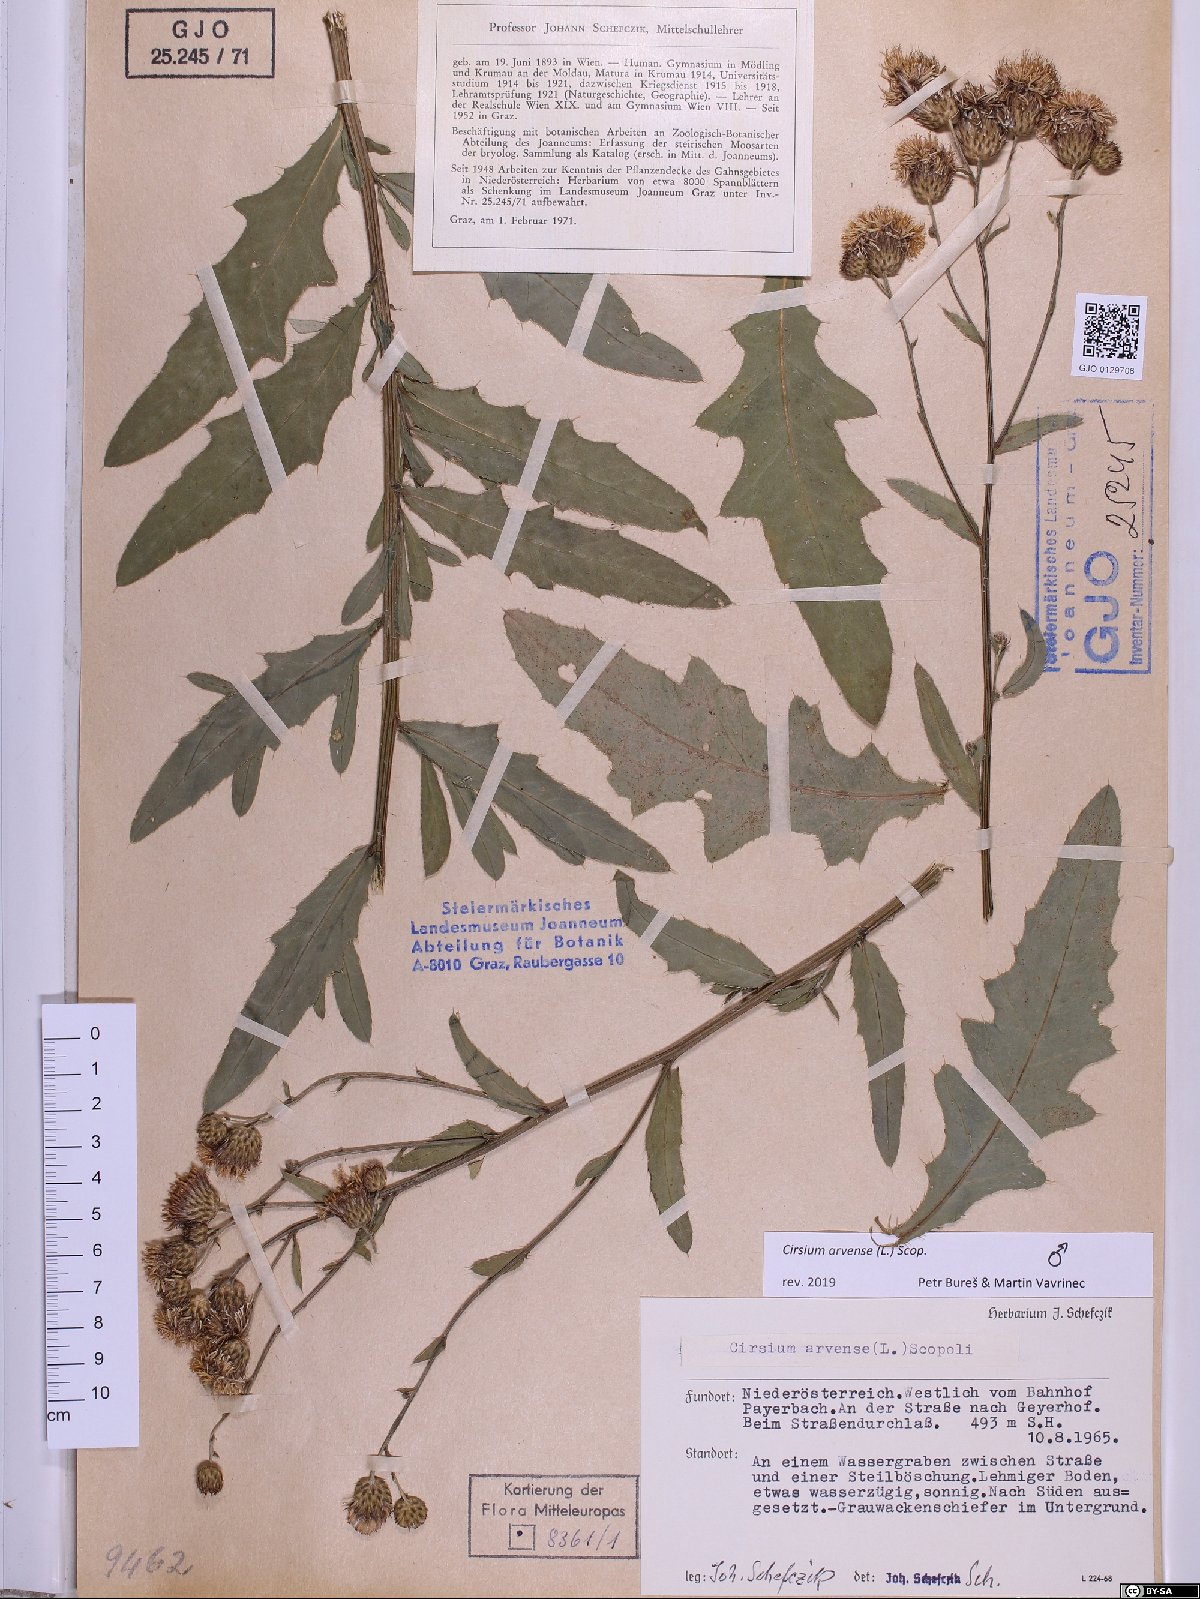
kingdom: Plantae
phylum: Tracheophyta
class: Magnoliopsida
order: Asterales
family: Asteraceae
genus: Cirsium
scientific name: Cirsium arvense
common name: Creeping thistle
